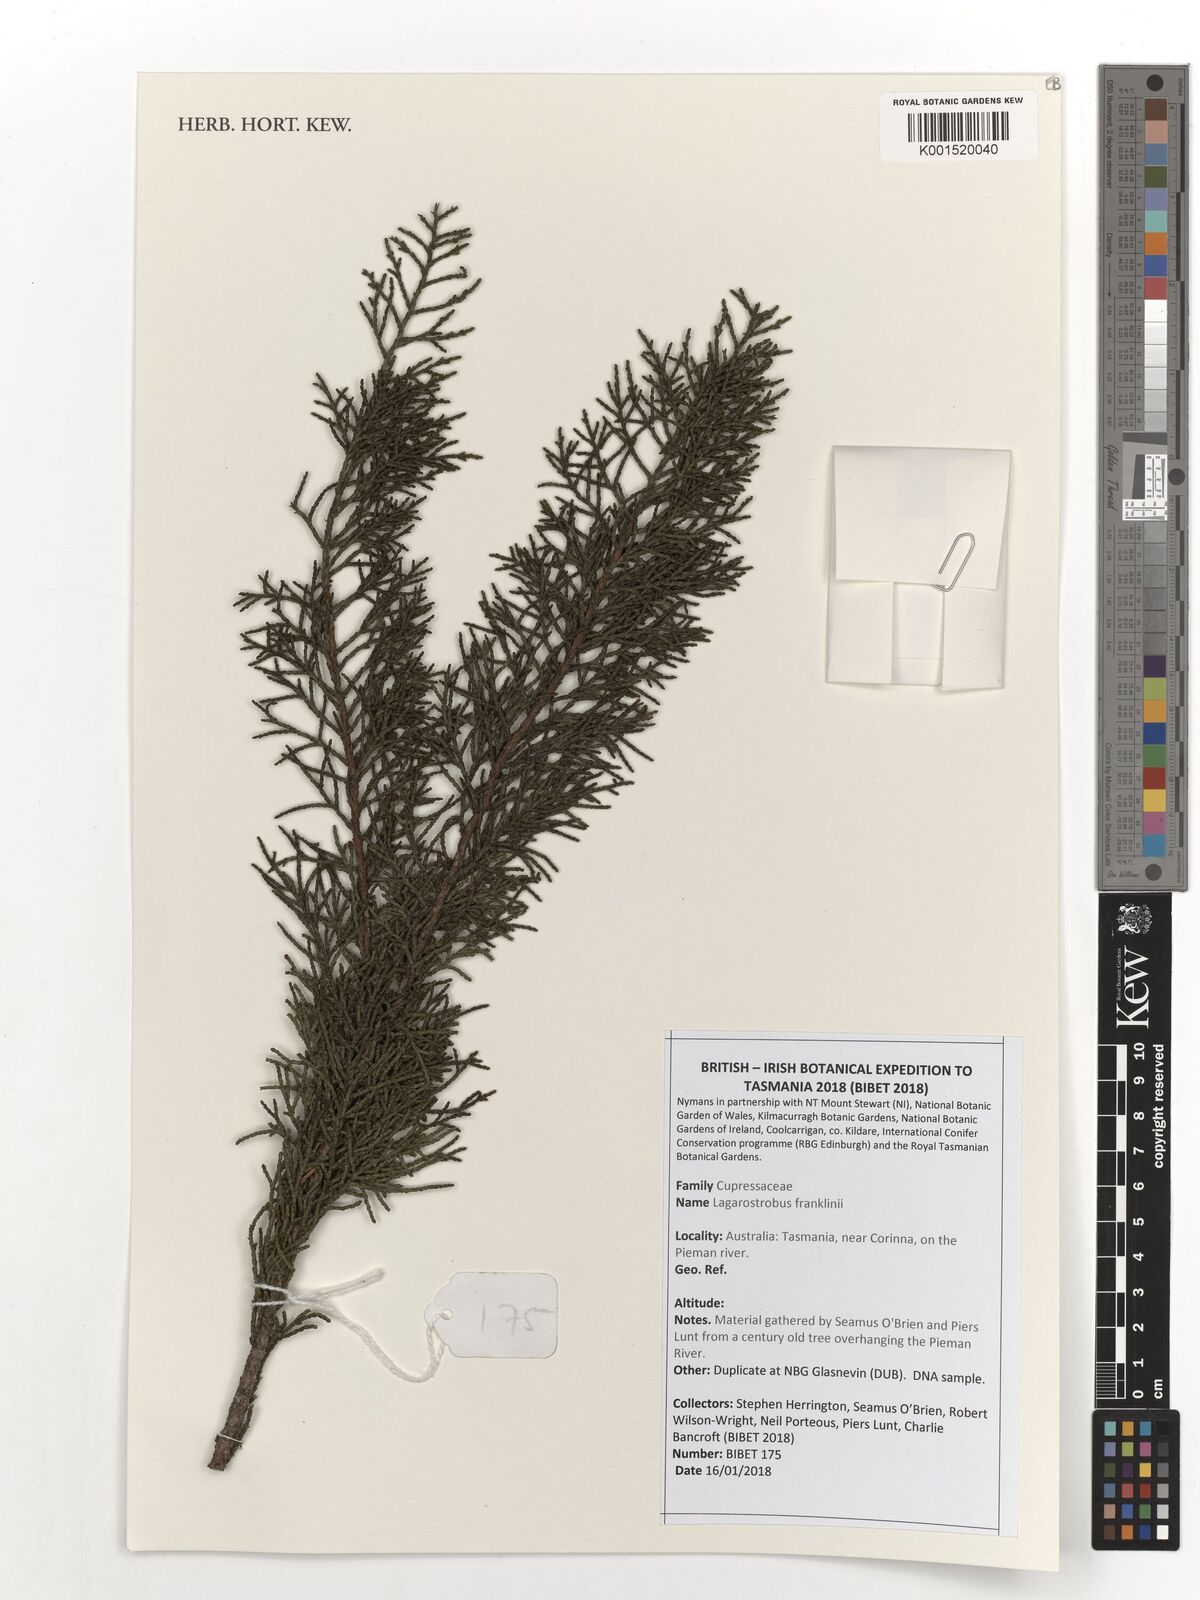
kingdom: Plantae
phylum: Tracheophyta
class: Pinopsida
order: Pinales
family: Podocarpaceae
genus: Lagarostrobos
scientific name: Lagarostrobos franklinii
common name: Huon pine
